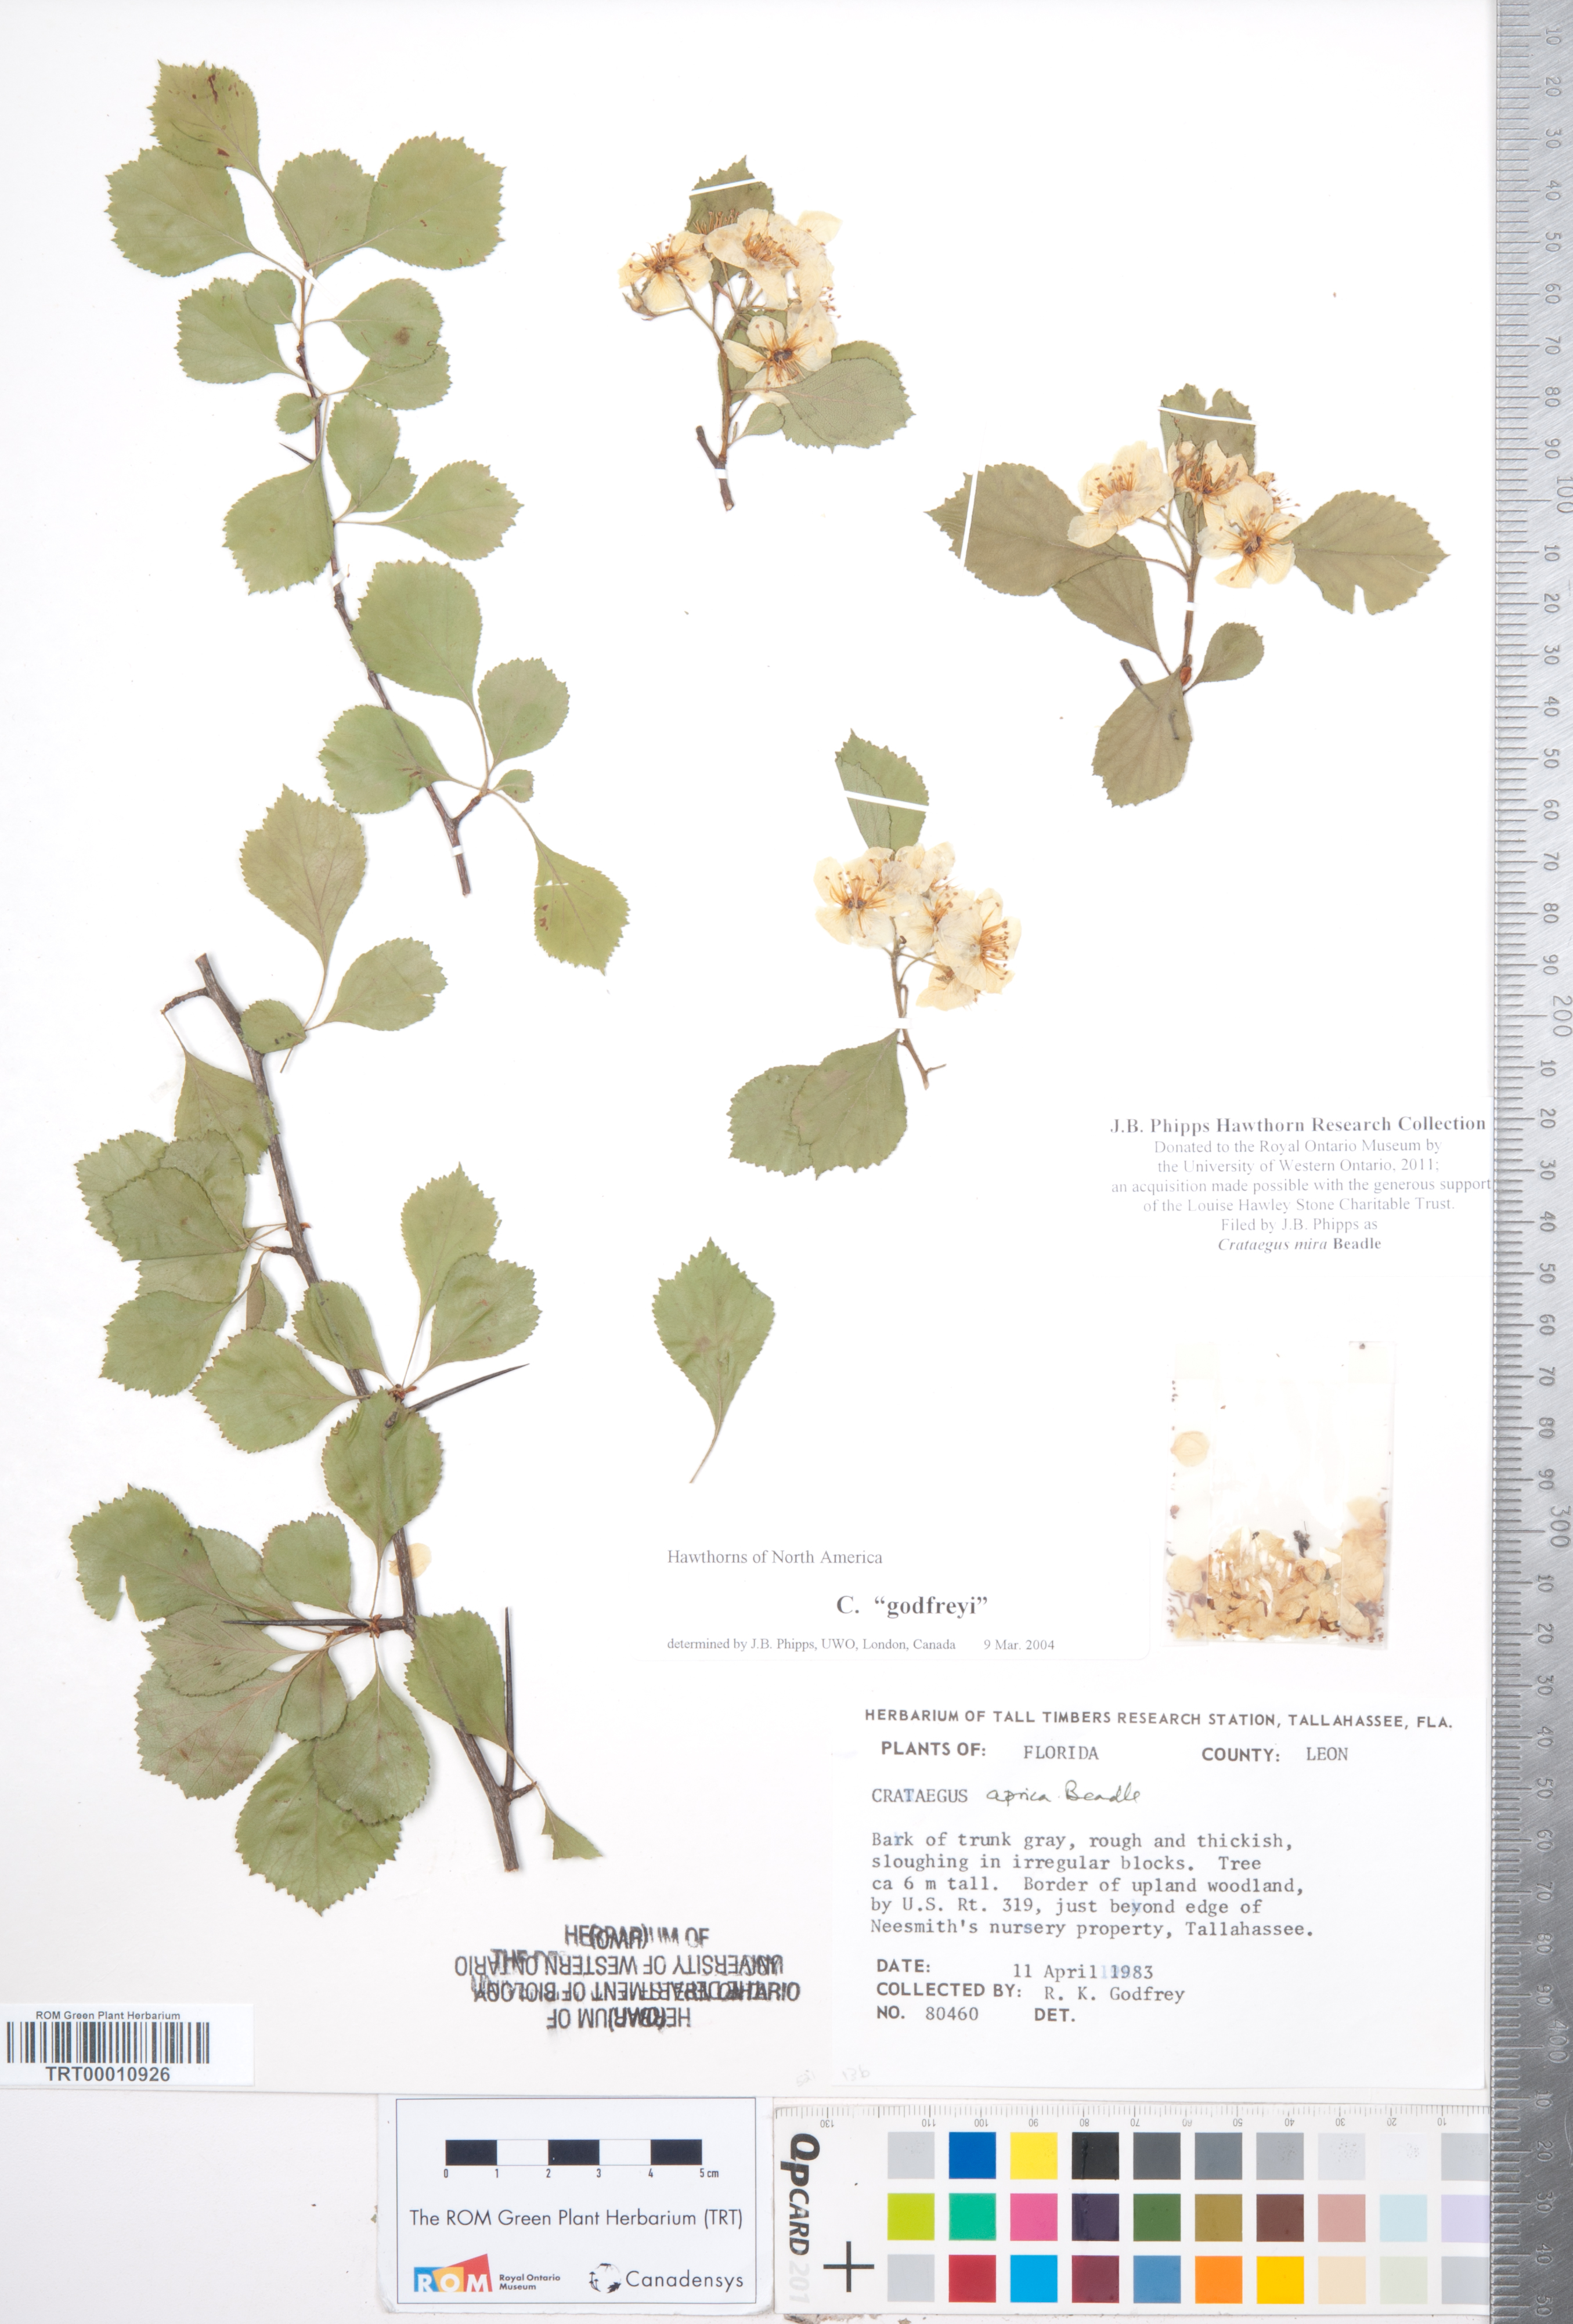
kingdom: Plantae
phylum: Tracheophyta
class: Magnoliopsida
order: Rosales
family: Rosaceae
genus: Crataegus
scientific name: Crataegus alleghaniensis
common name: Allegheny hawthorn
